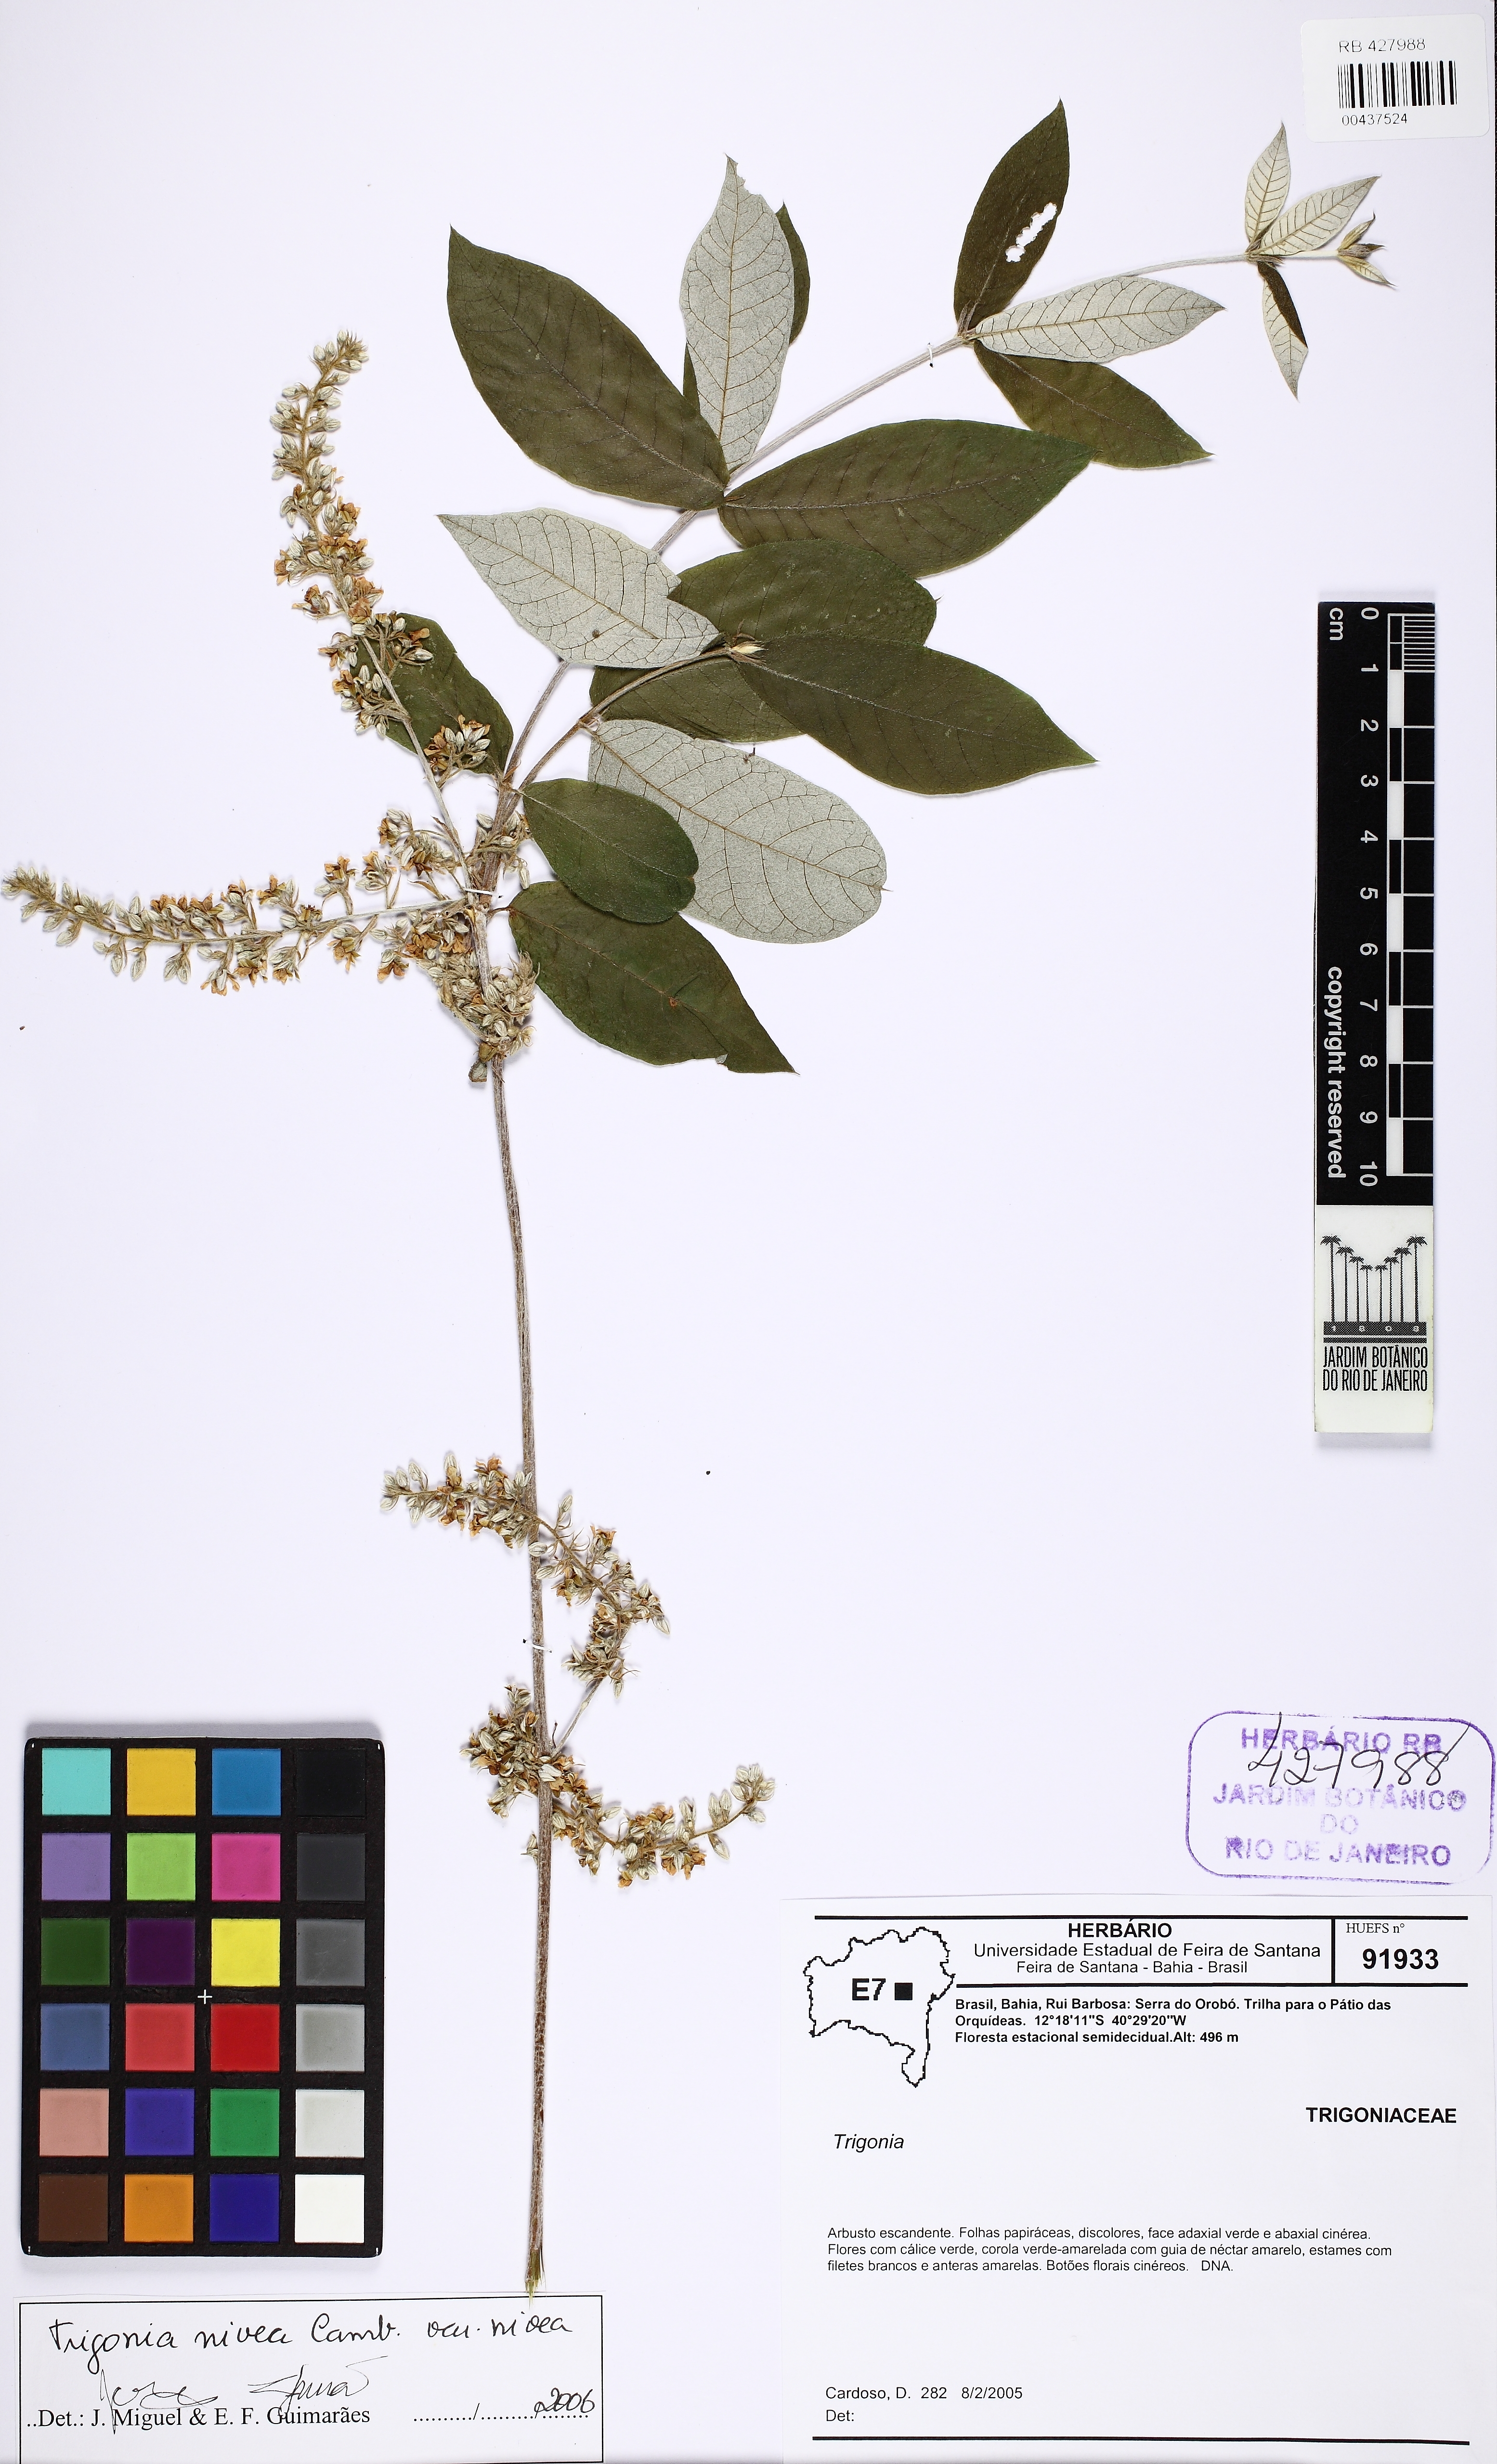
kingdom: Plantae
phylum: Tracheophyta
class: Magnoliopsida
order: Malpighiales
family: Trigoniaceae
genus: Trigonia
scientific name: Trigonia nivea
